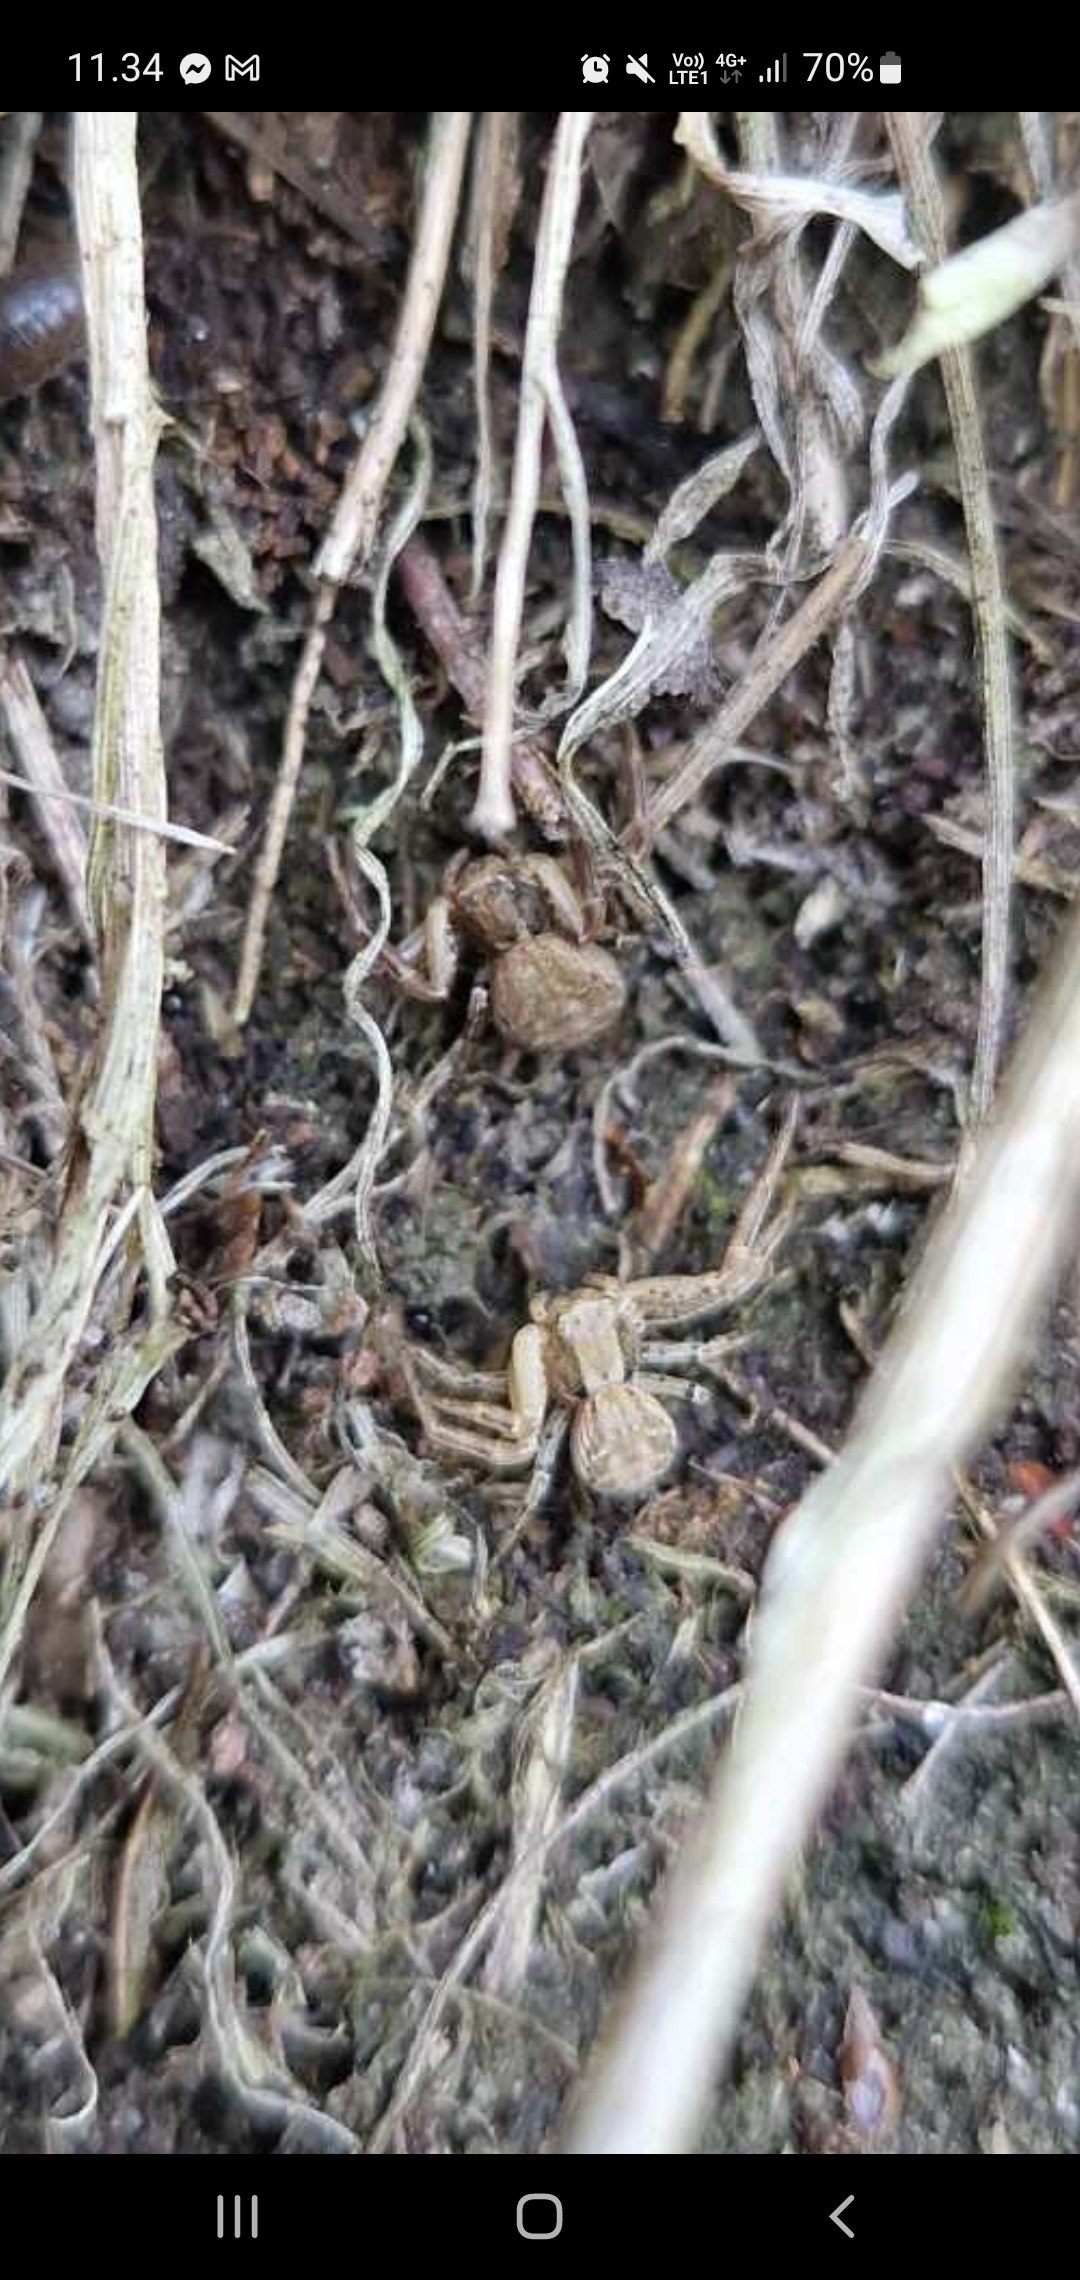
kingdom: Animalia
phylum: Arthropoda
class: Arachnida
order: Araneae
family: Thomisidae
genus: Xysticus
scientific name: Xysticus
